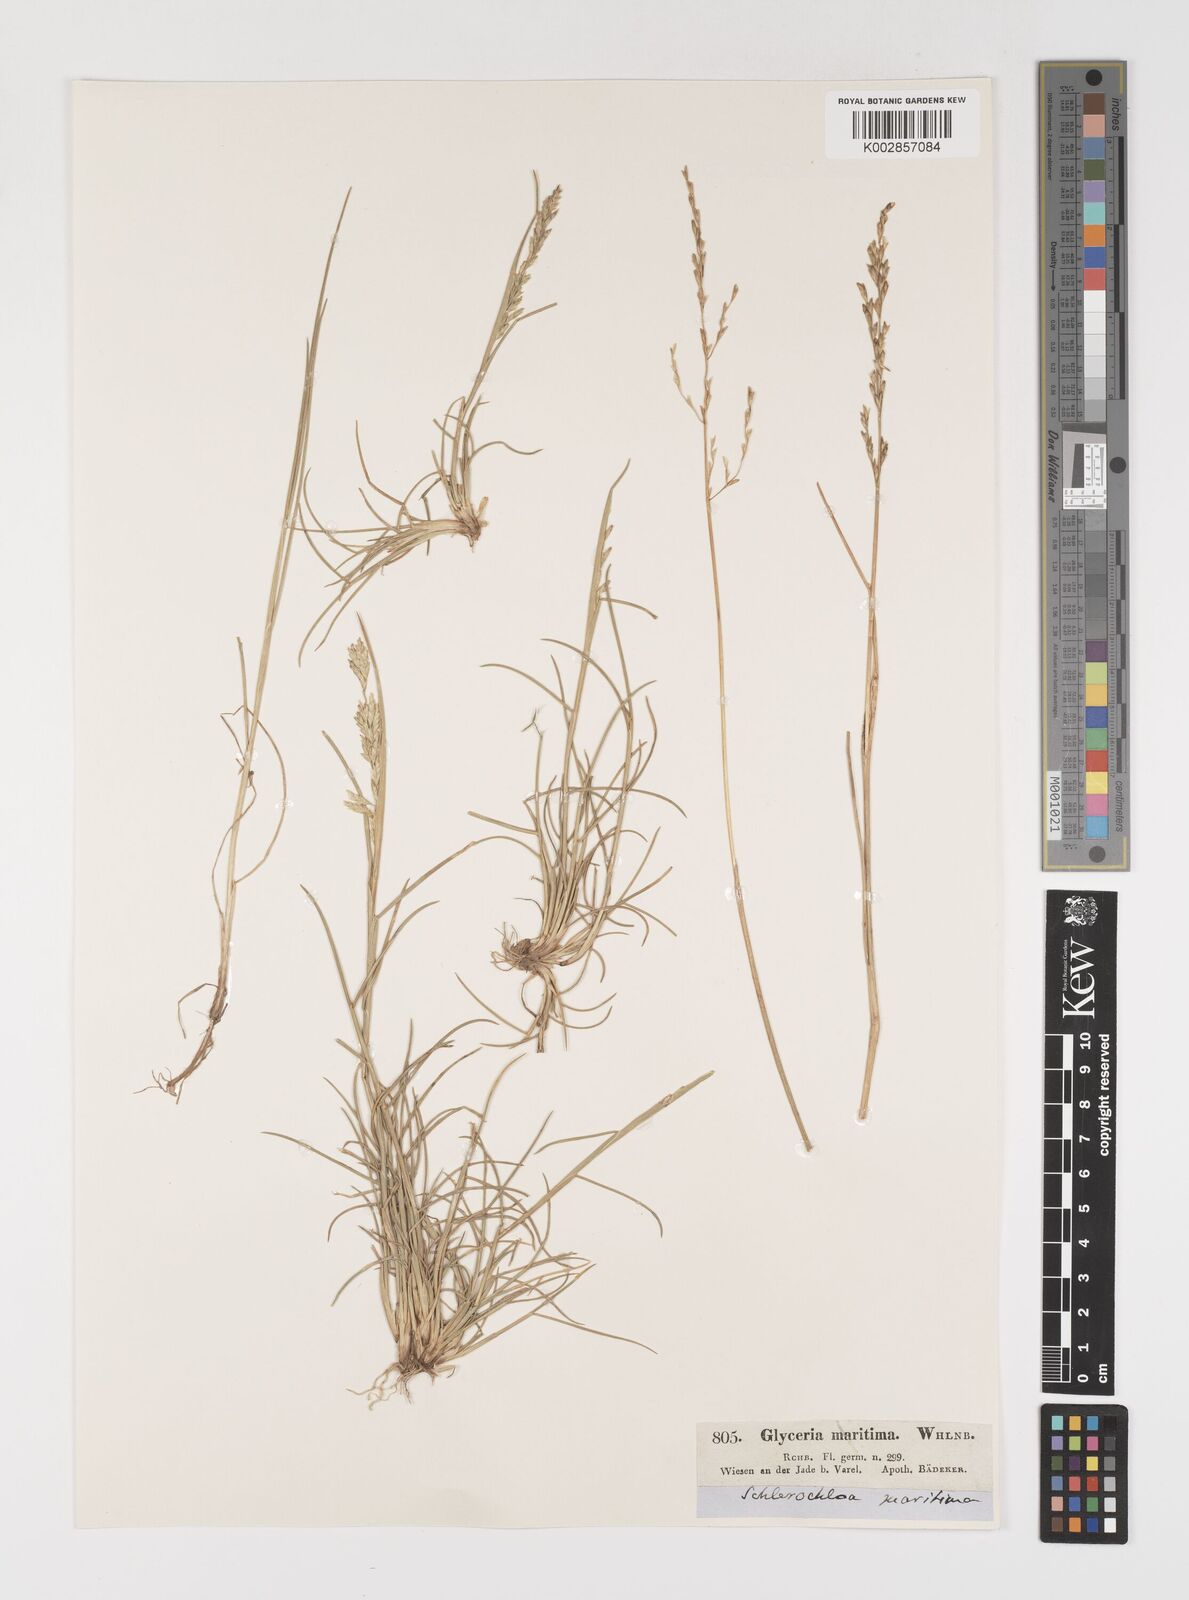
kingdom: Plantae
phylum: Tracheophyta
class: Liliopsida
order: Poales
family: Poaceae
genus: Puccinellia
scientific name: Puccinellia maritima
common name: Common saltmarsh grass
